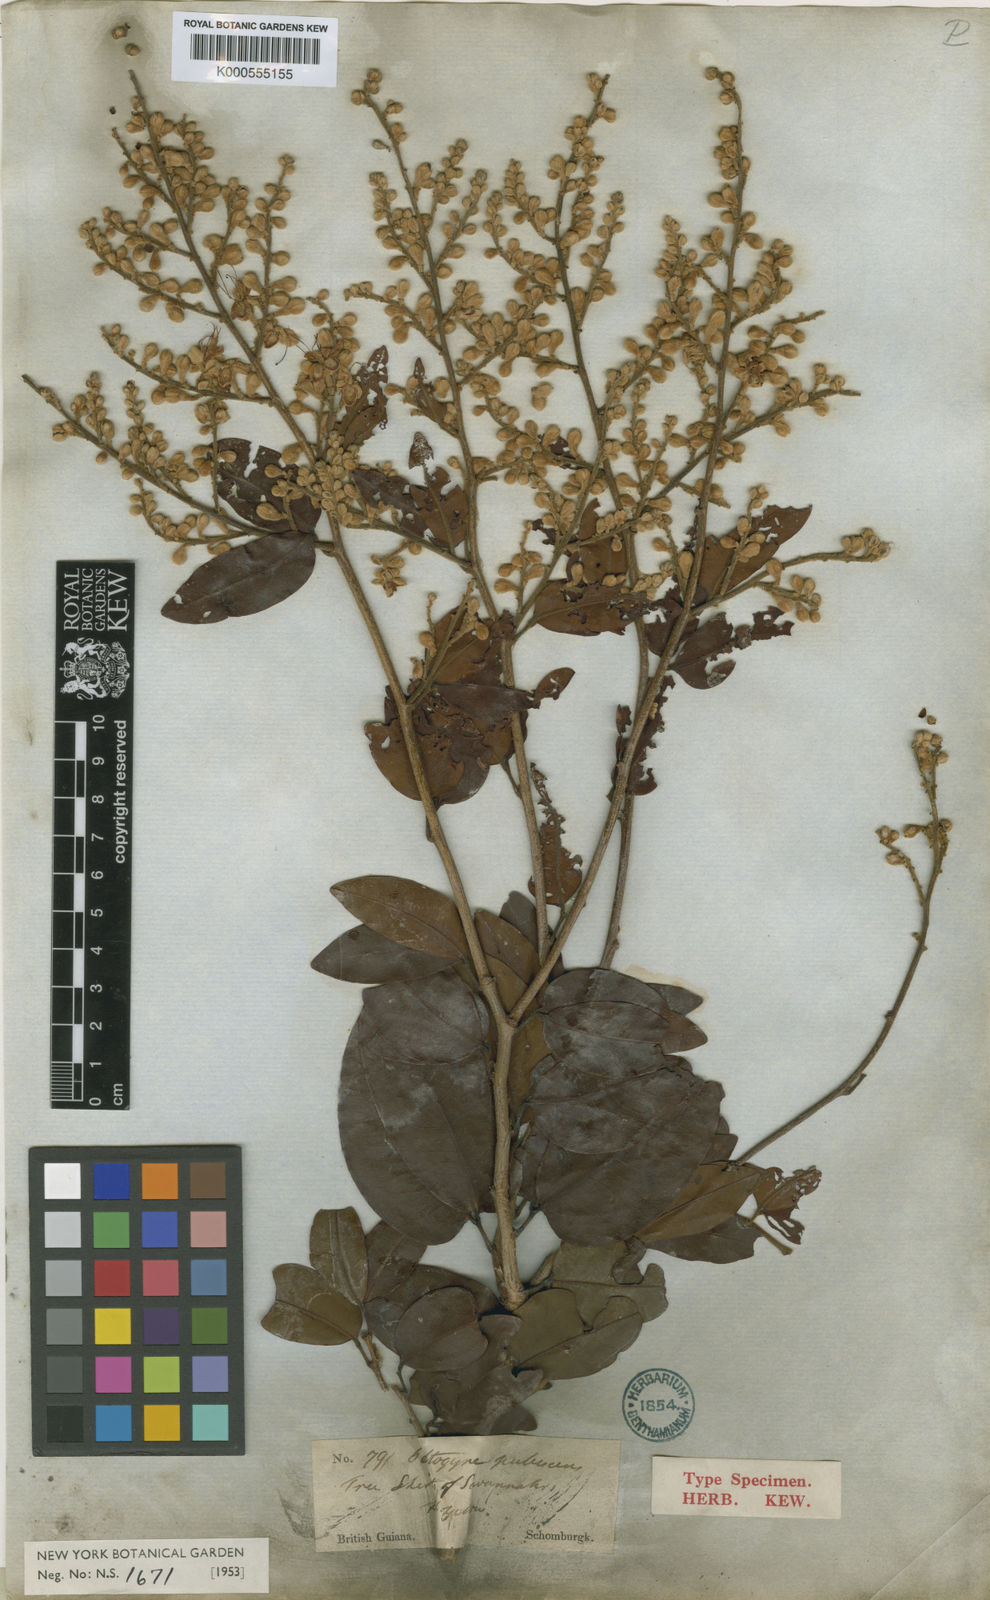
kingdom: Plantae
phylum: Tracheophyta
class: Magnoliopsida
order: Fabales
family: Fabaceae
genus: Peltogyne
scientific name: Peltogyne paniculata
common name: Purpleheart
